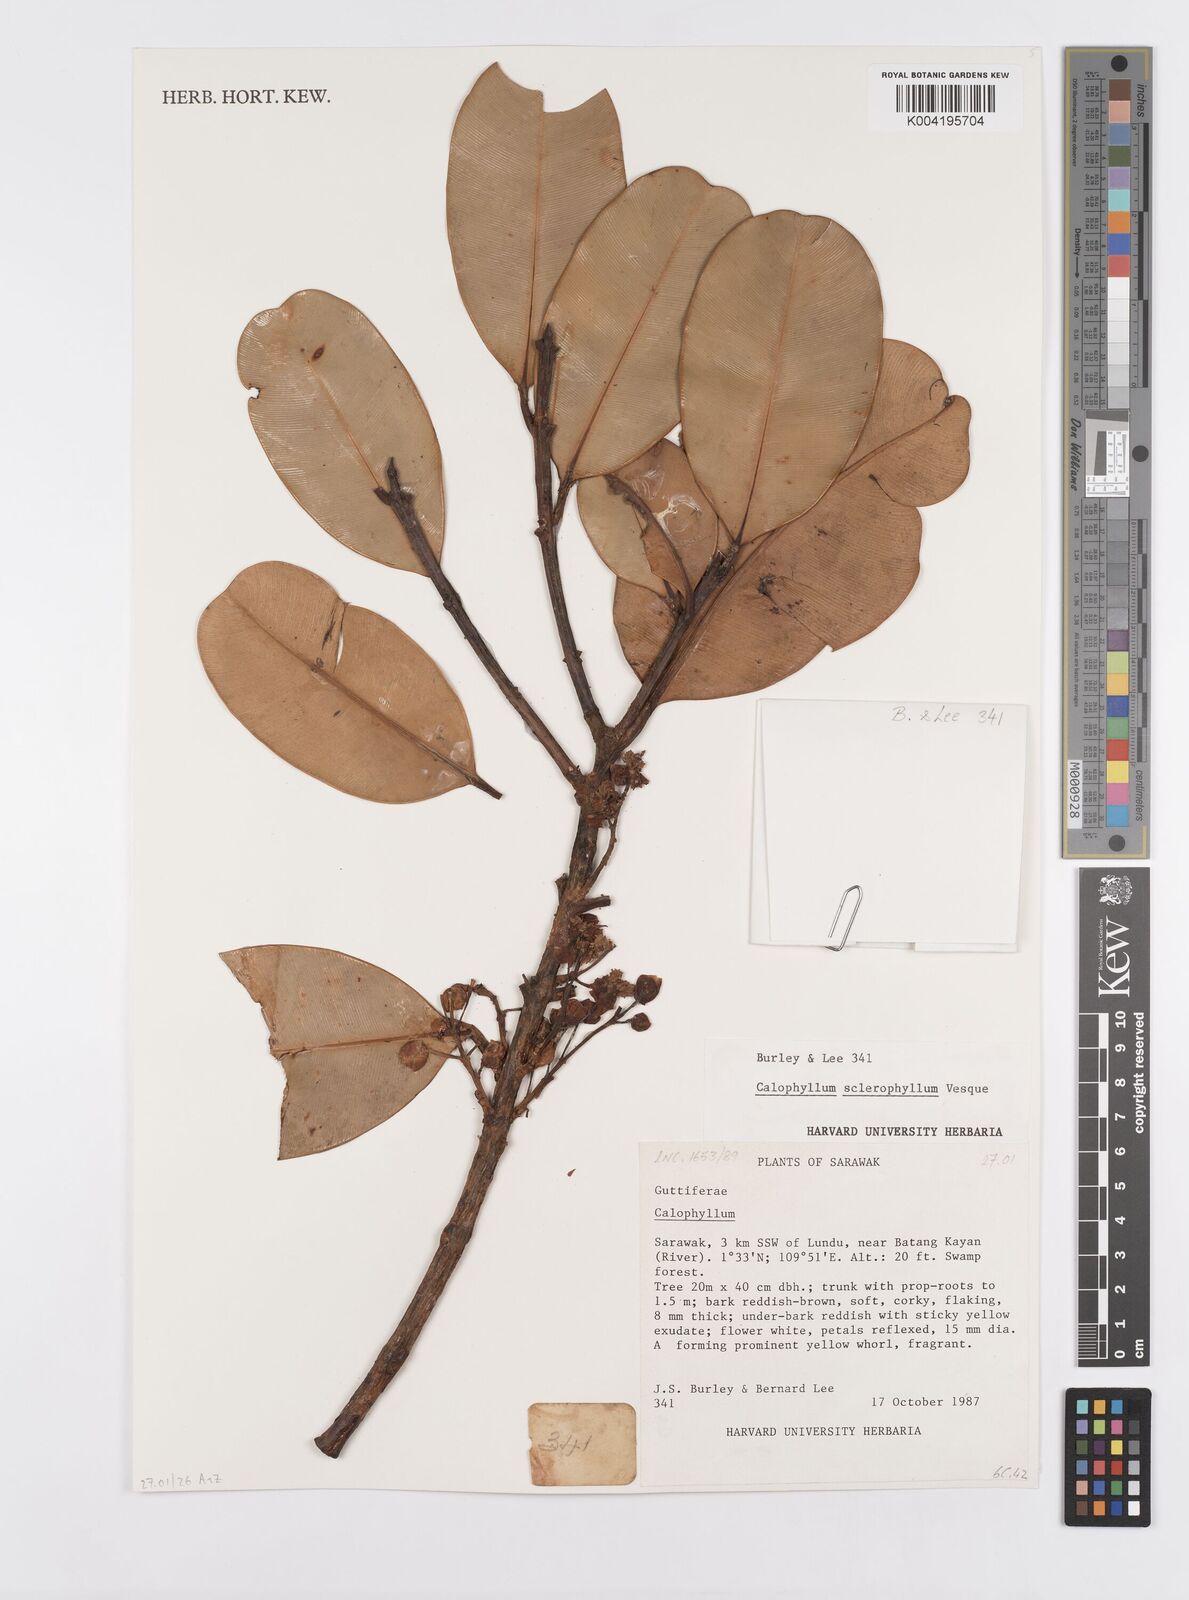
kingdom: Plantae
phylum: Tracheophyta
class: Magnoliopsida
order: Malpighiales
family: Calophyllaceae
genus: Calophyllum
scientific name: Calophyllum sclerophyllum
